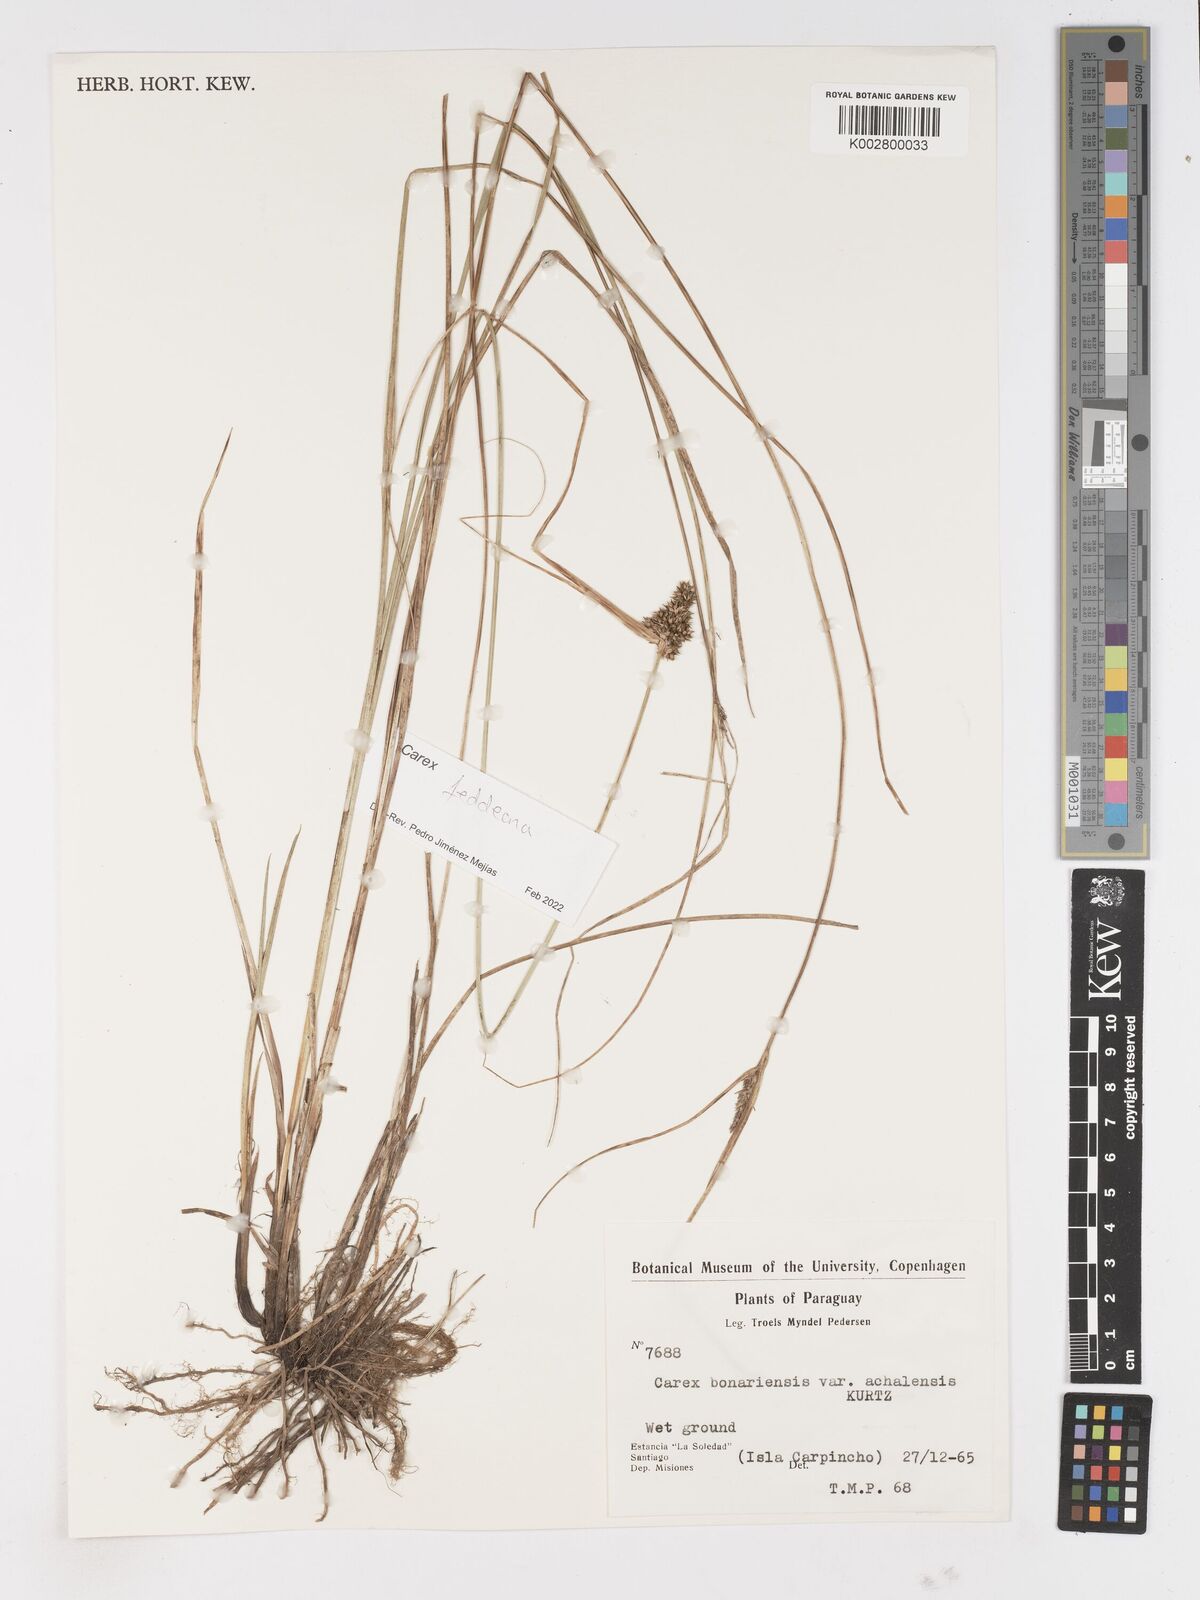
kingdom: Plantae
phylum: Tracheophyta
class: Liliopsida
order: Poales
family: Cyperaceae
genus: Carex
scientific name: Carex bonariensis
